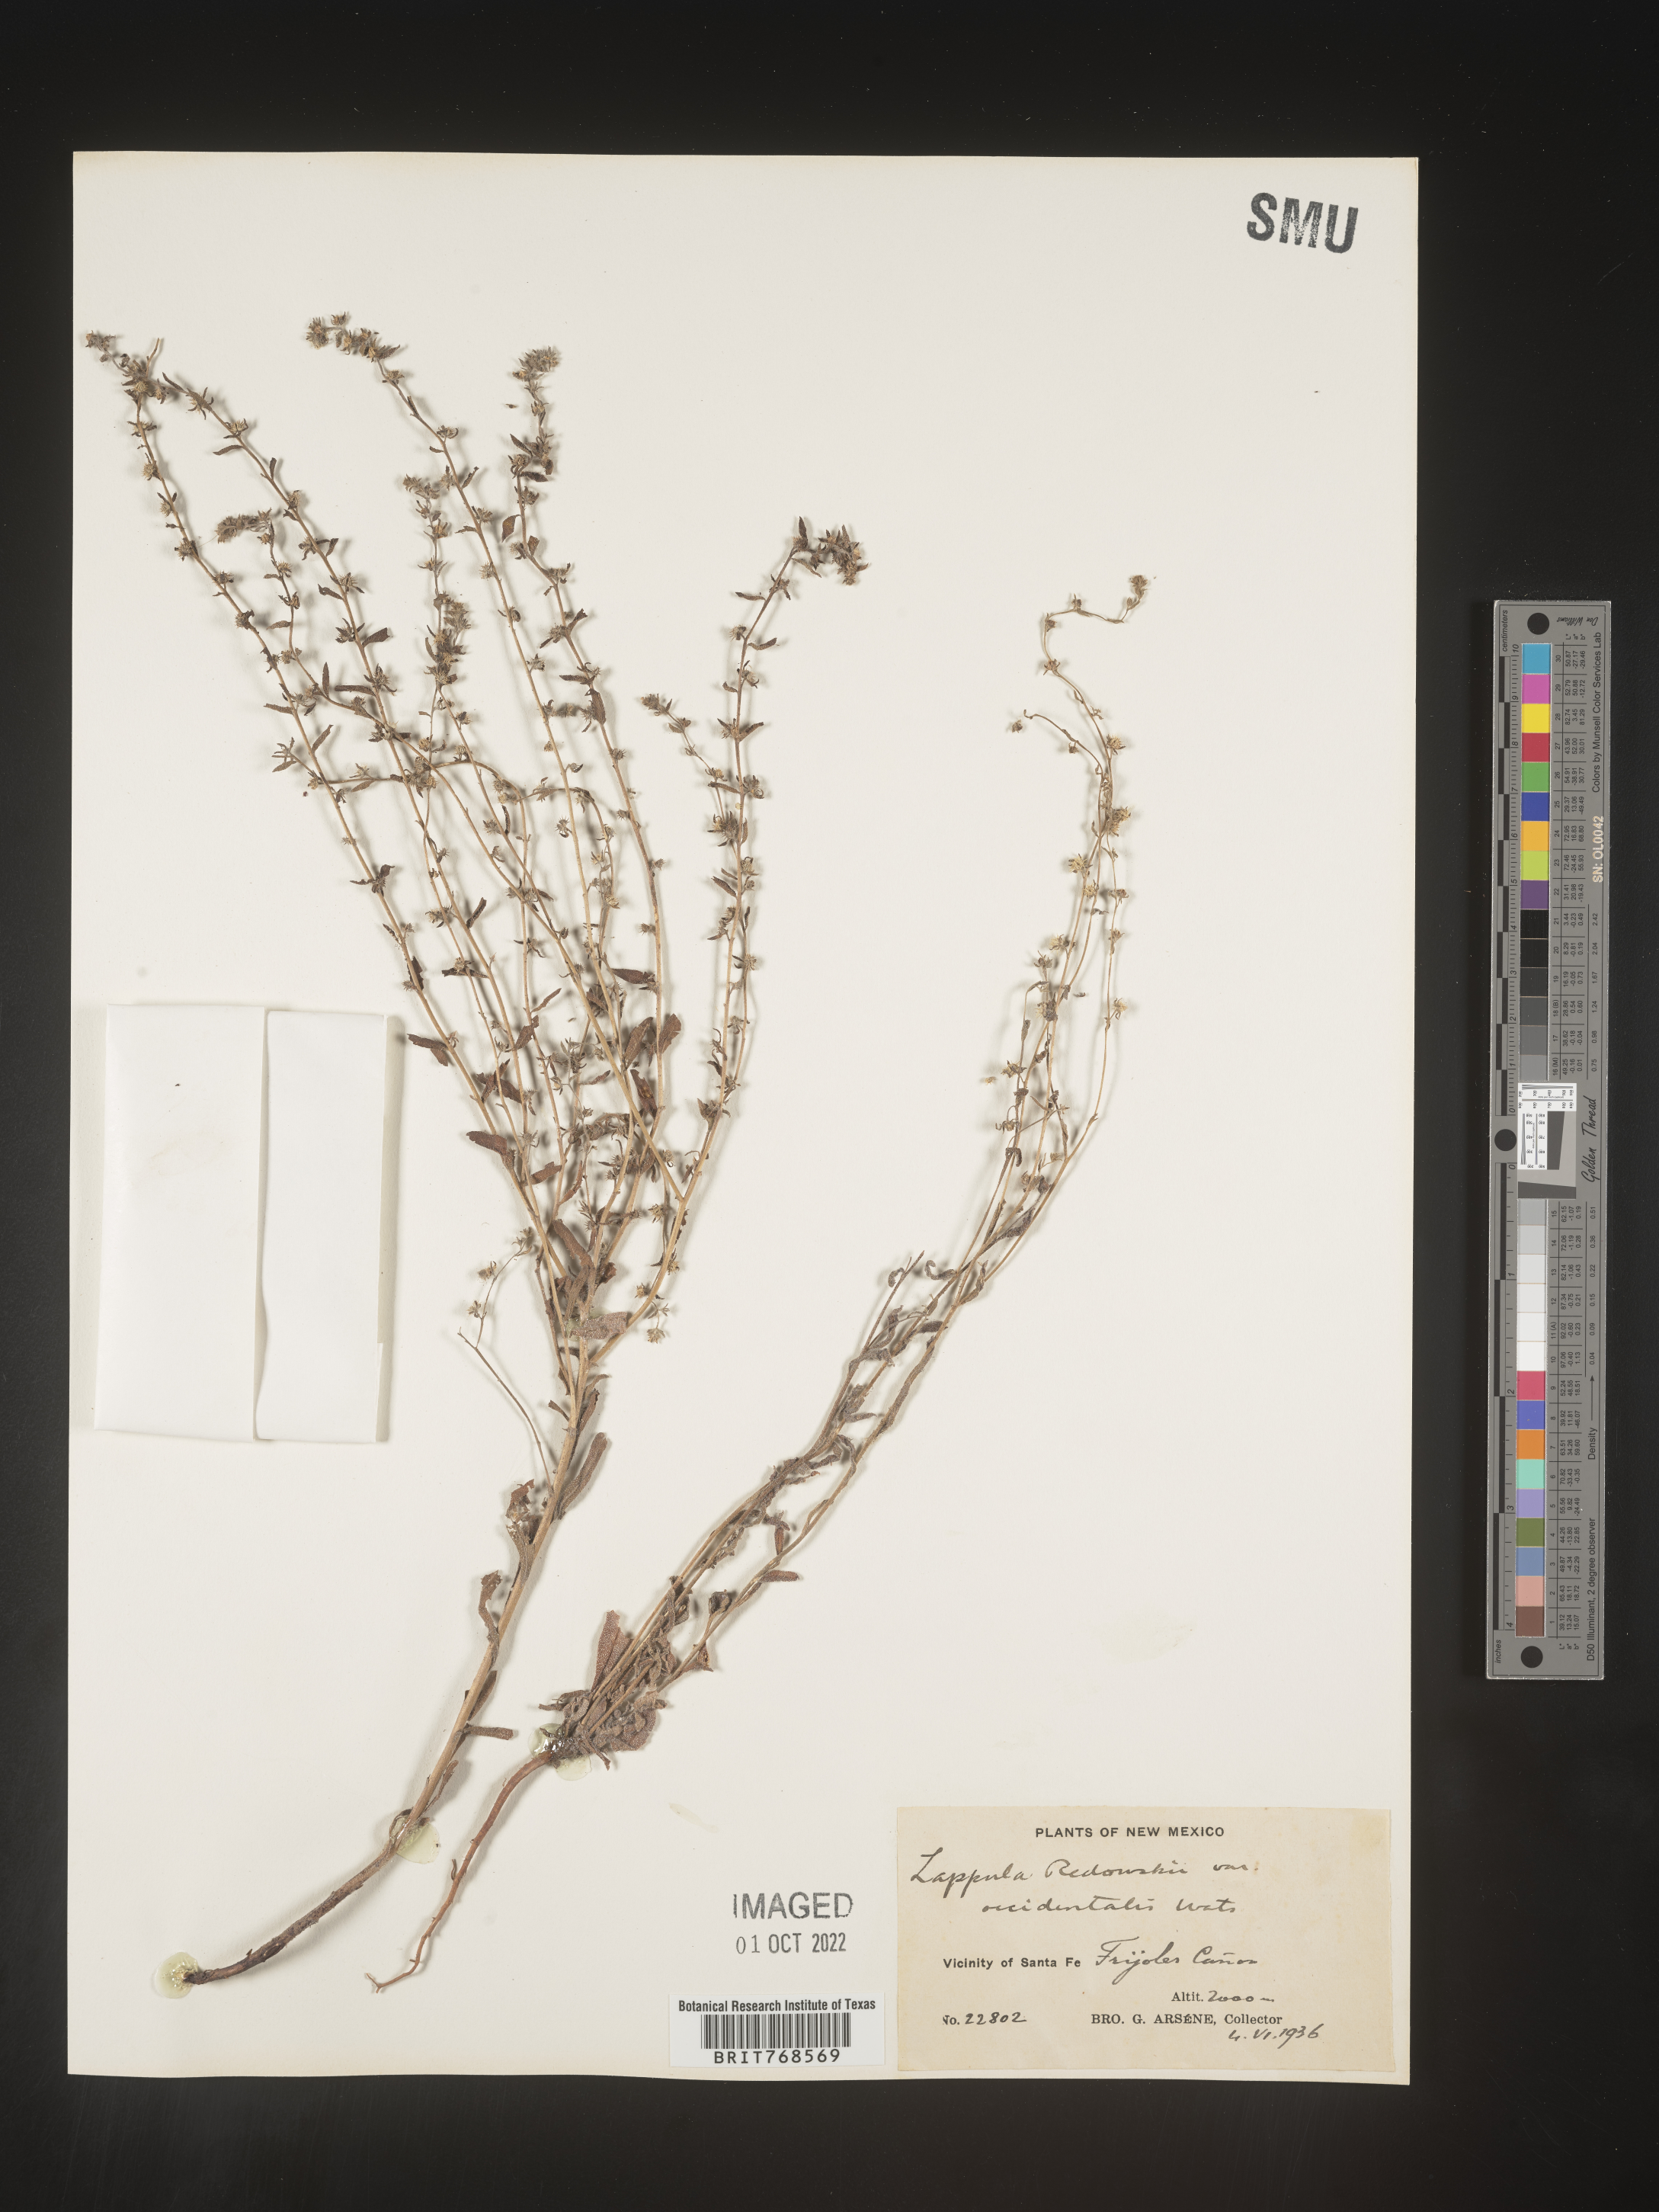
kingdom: Plantae
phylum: Tracheophyta
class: Magnoliopsida
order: Boraginales
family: Boraginaceae
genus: Lappula
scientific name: Lappula redowskii
